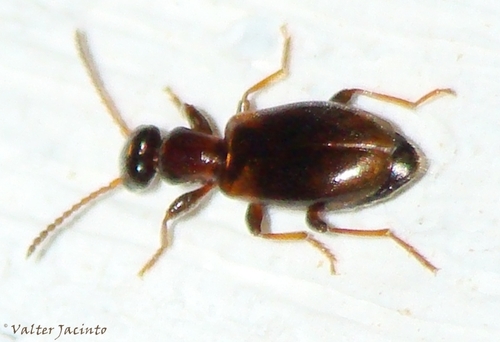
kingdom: Animalia
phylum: Arthropoda
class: Insecta
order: Coleoptera
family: Anthicidae
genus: Omonadus
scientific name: Omonadus floralis
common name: Narrownecked grain beetle
